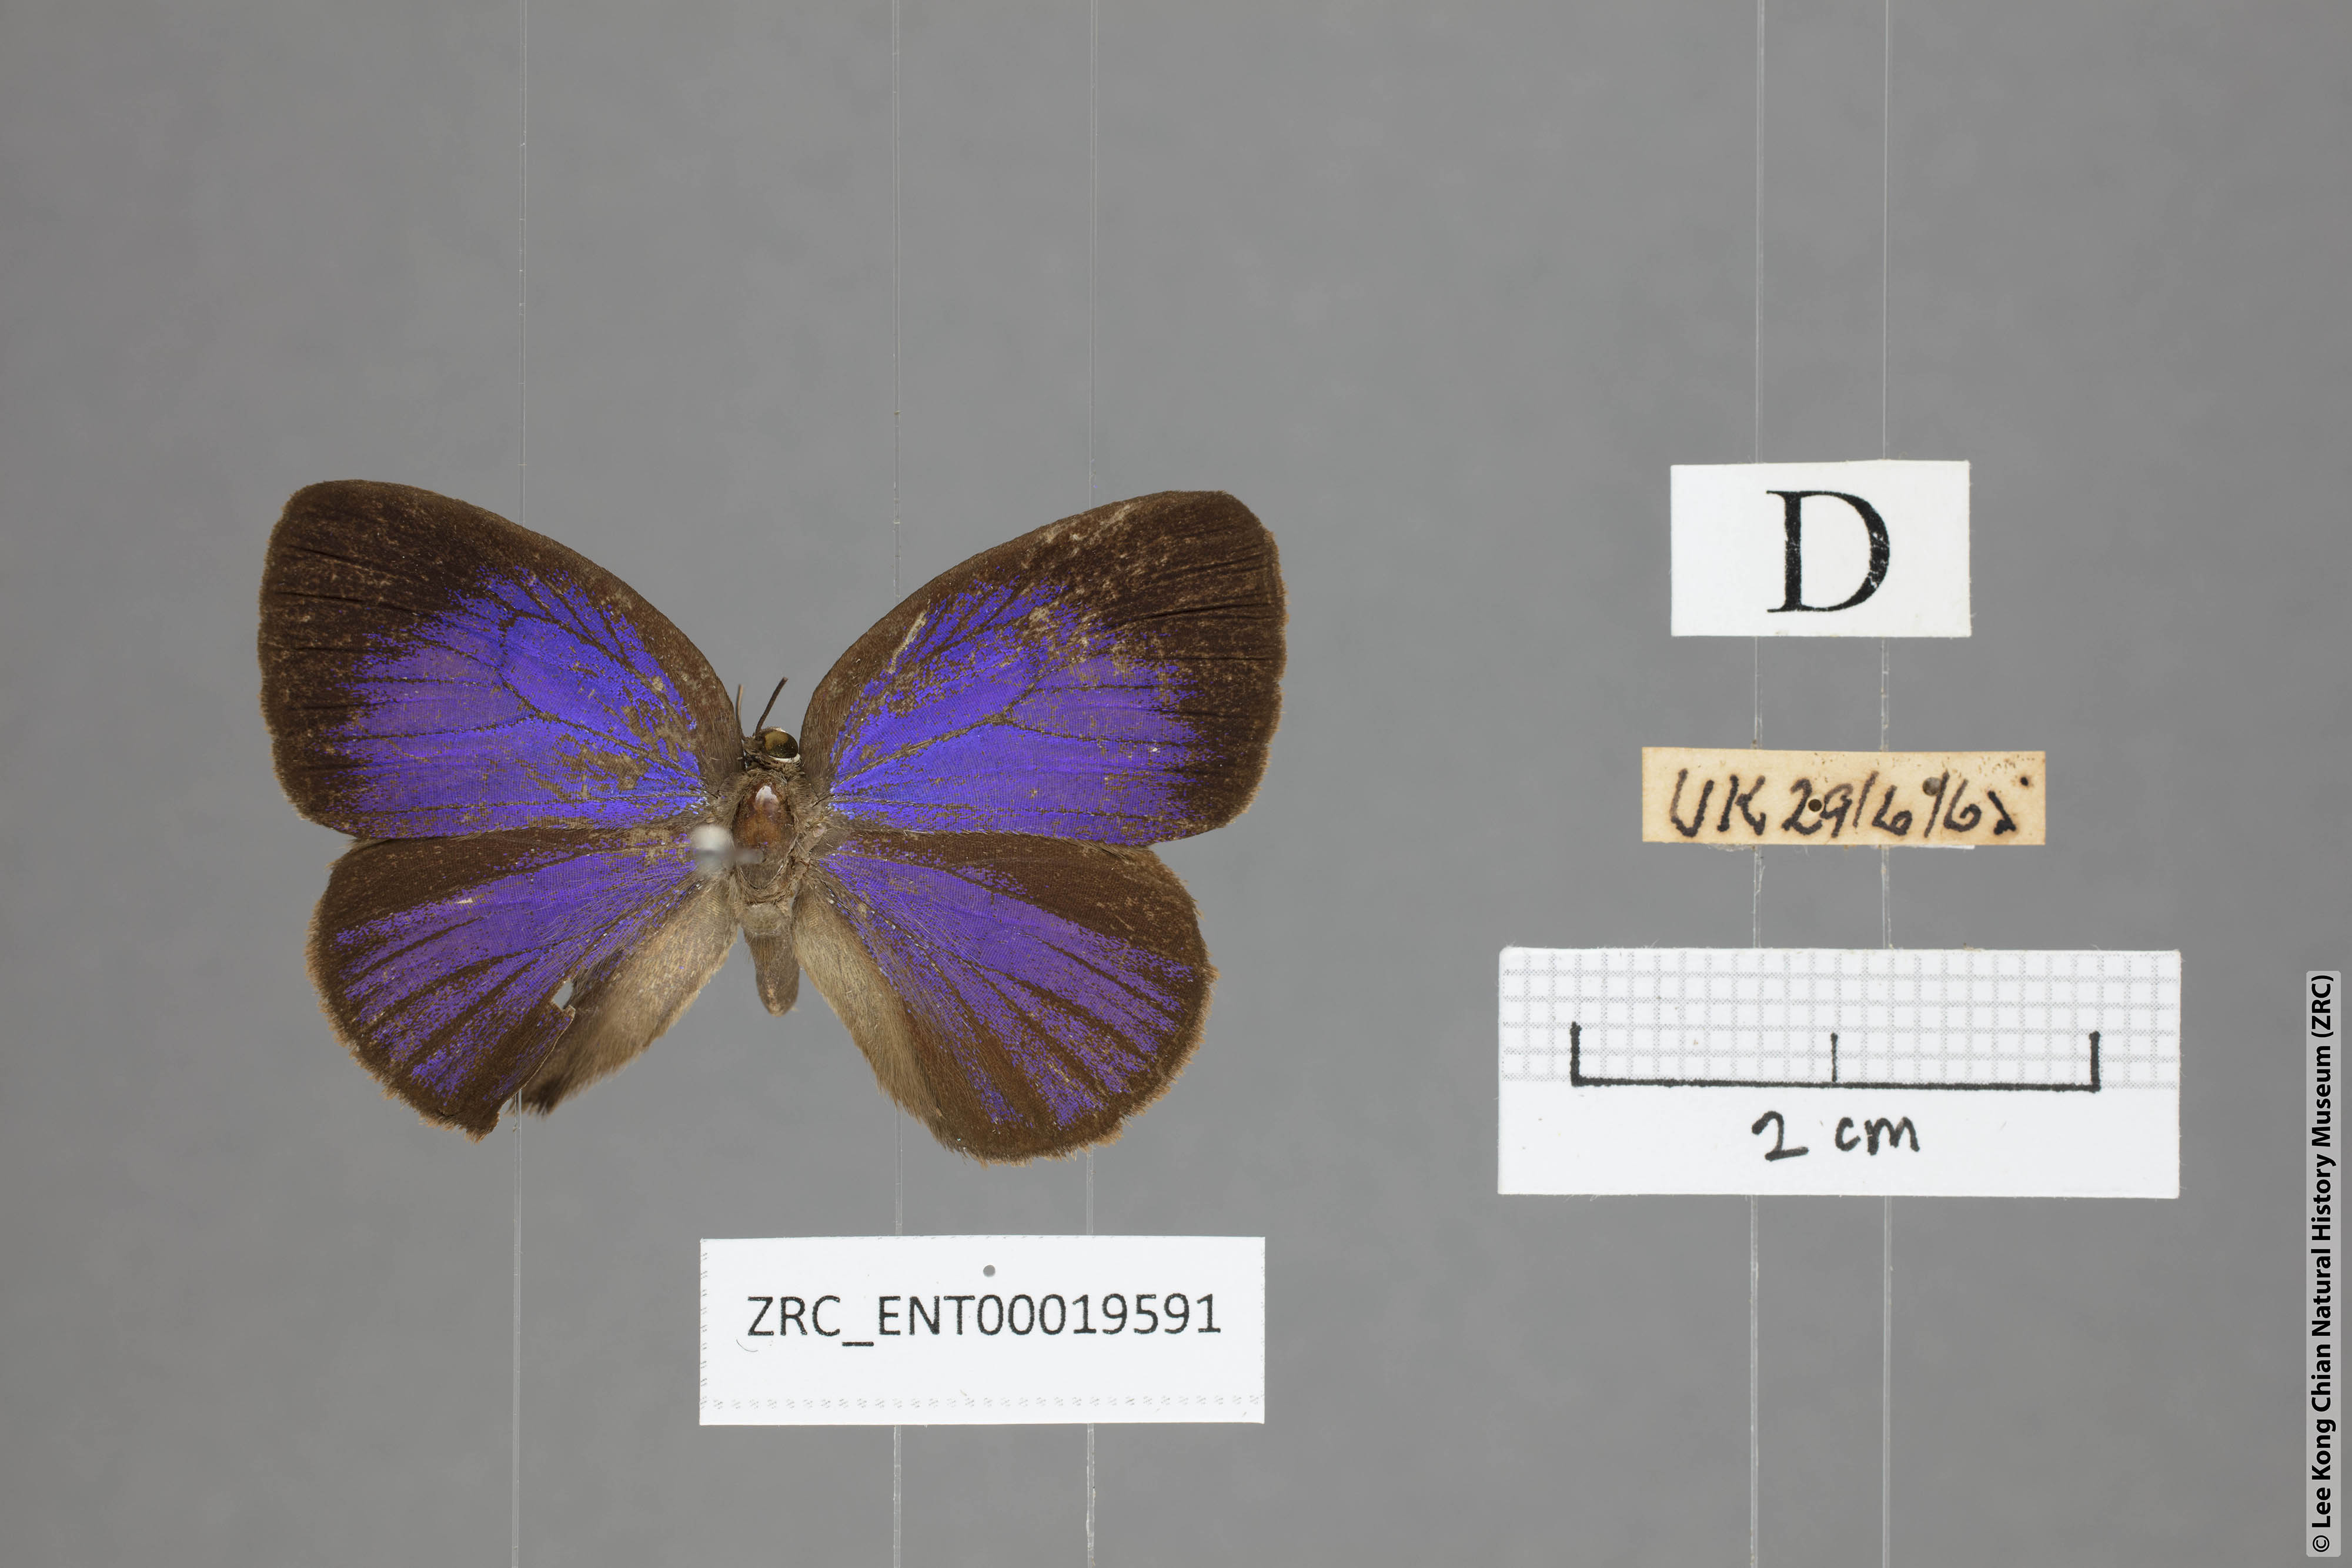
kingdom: Animalia
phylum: Arthropoda
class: Insecta
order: Lepidoptera
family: Lycaenidae
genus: Arhopala
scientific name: Arhopala kurzi
